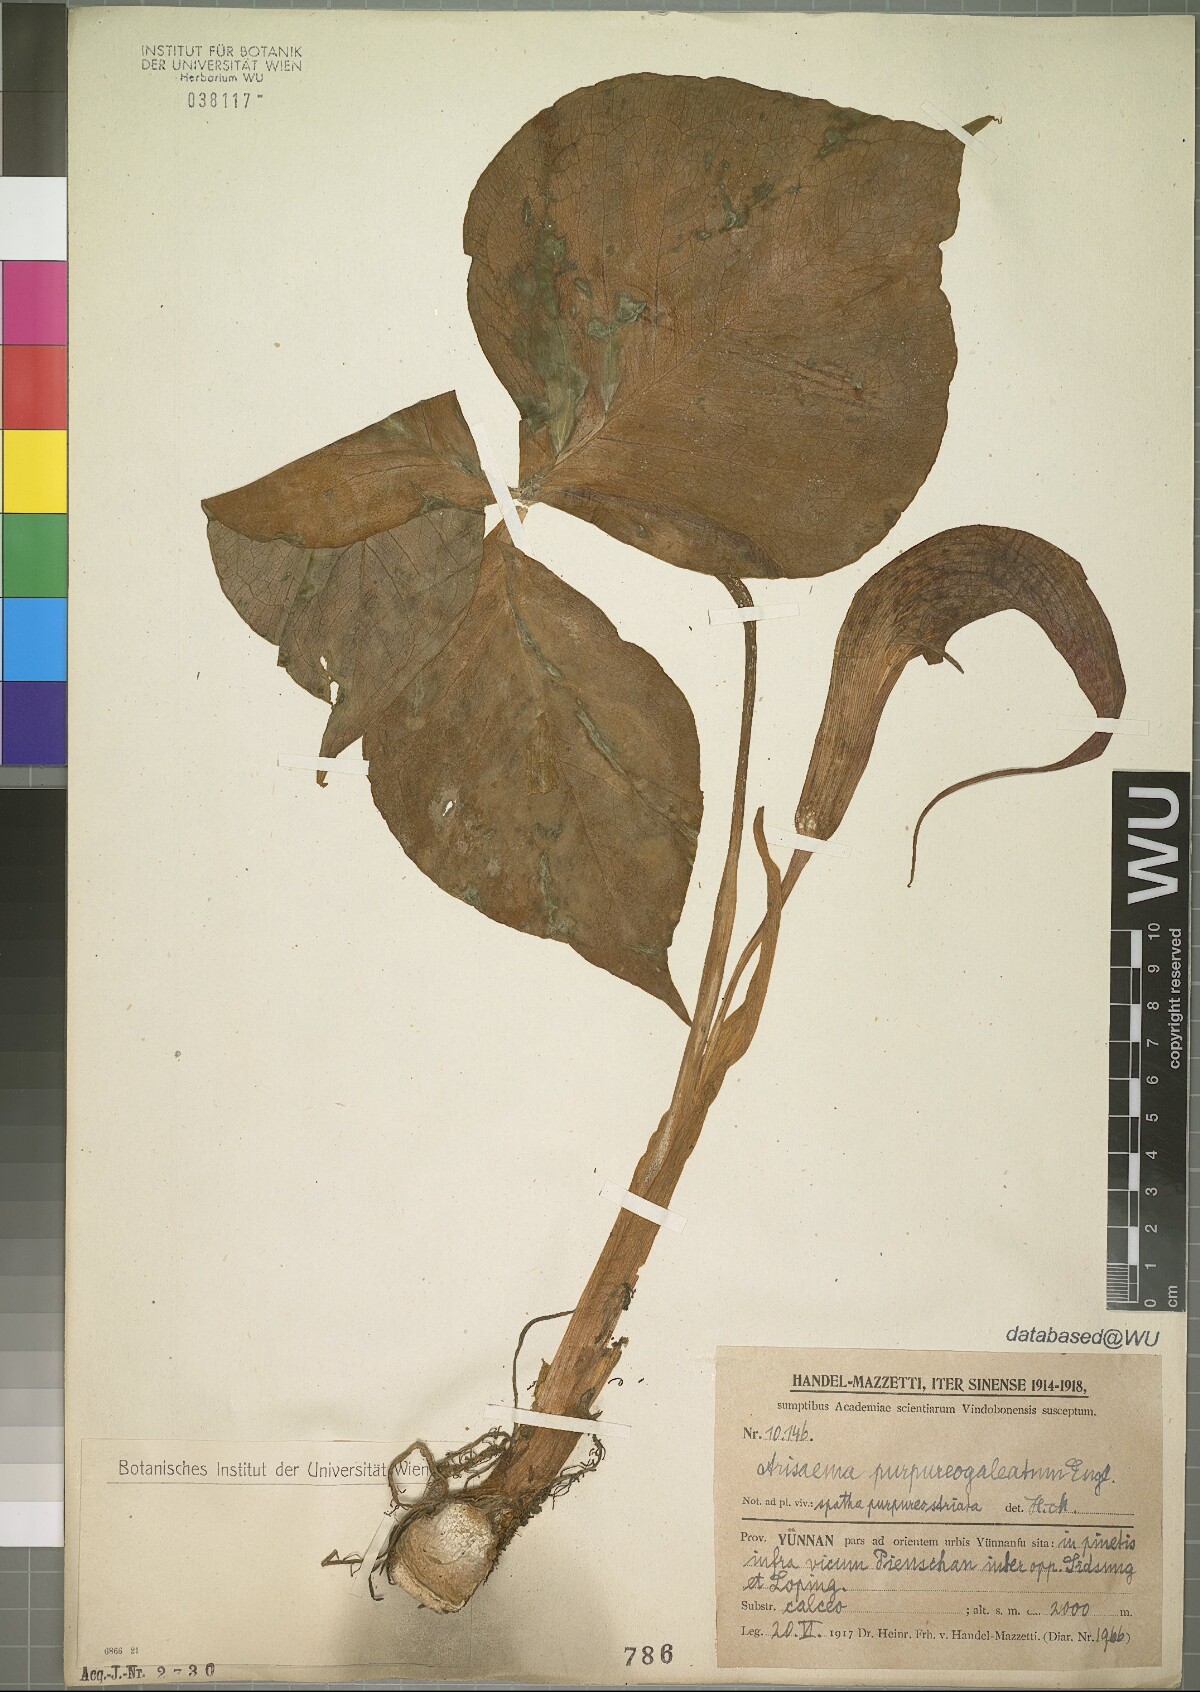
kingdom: Plantae
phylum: Tracheophyta
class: Liliopsida
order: Alismatales
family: Araceae
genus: Arisaema
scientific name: Arisaema purpureogaleatum
